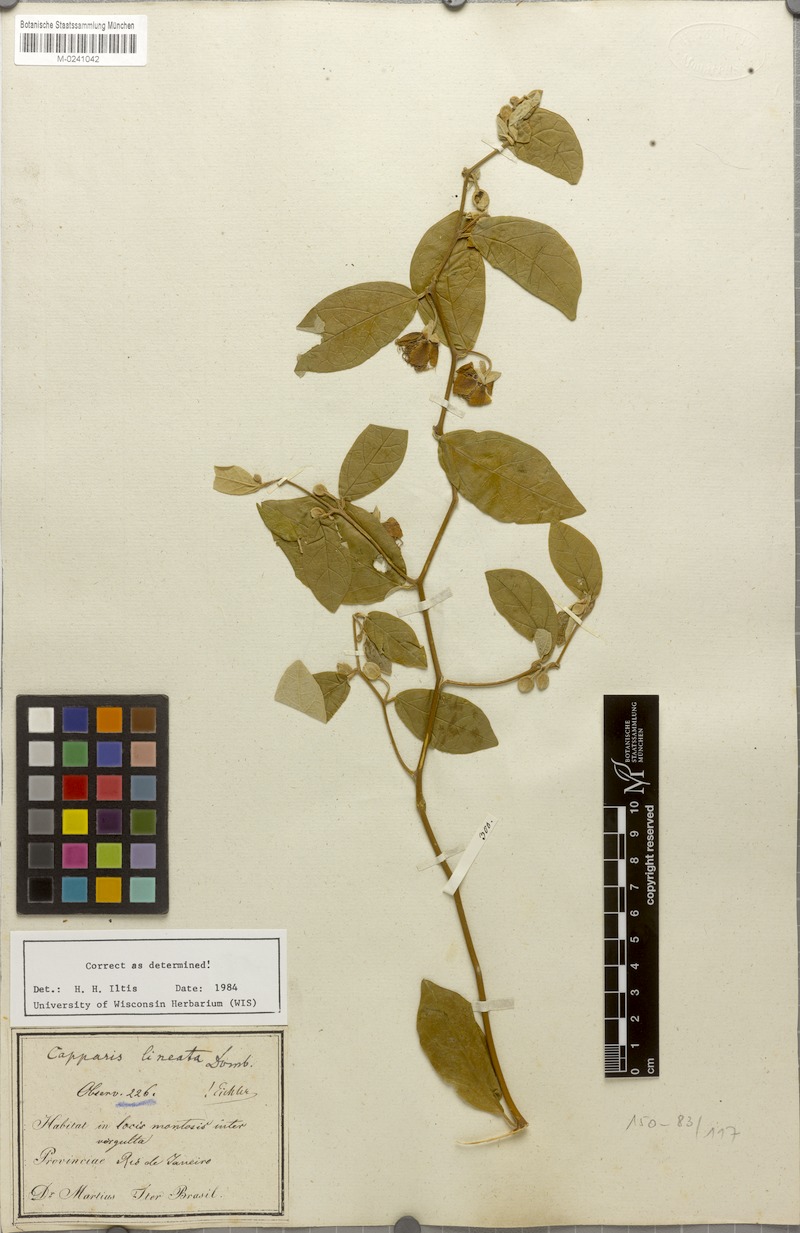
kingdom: Plantae
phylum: Tracheophyta
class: Magnoliopsida
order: Brassicales
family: Capparaceae
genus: Mesocapparis
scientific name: Mesocapparis lineata
